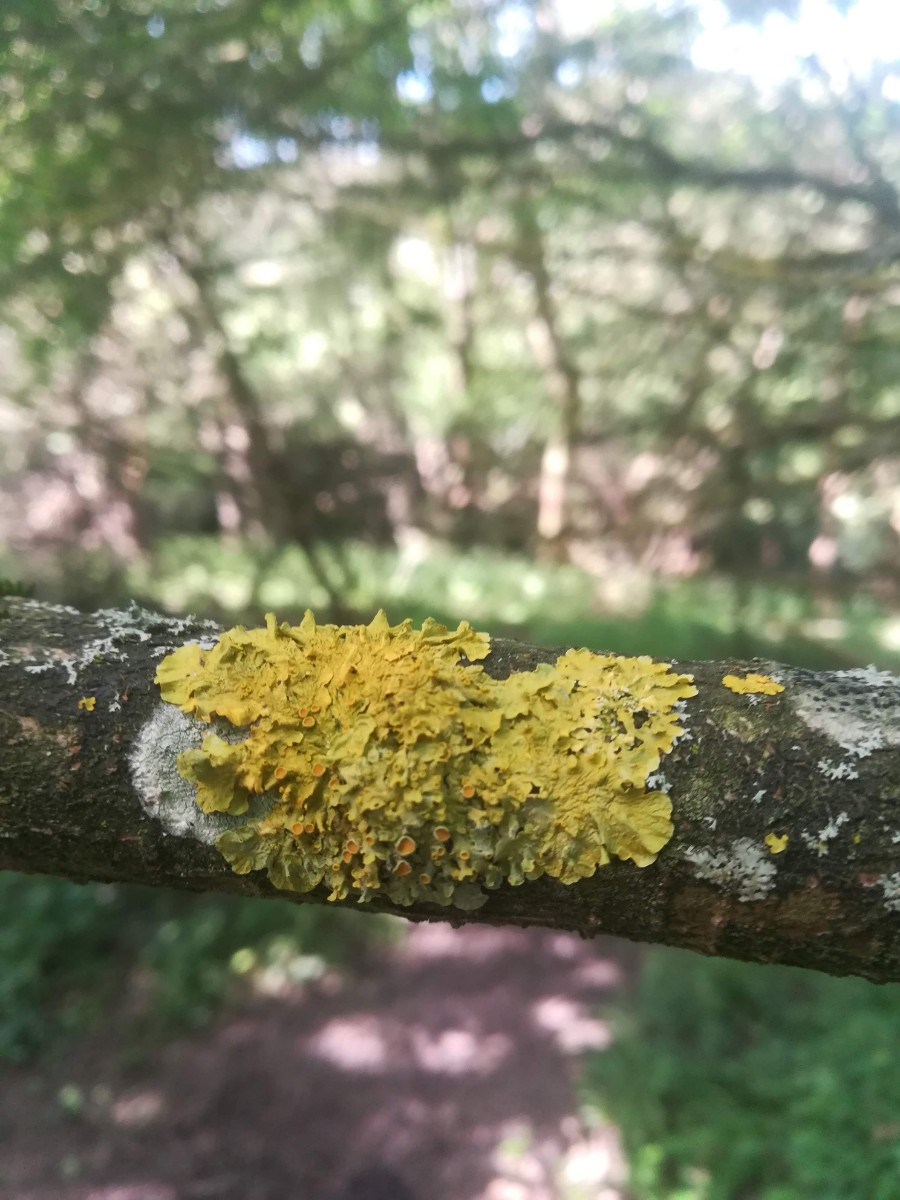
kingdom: Fungi
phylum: Ascomycota
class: Lecanoromycetes
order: Teloschistales
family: Teloschistaceae
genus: Xanthoria
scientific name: Xanthoria parietina
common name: almindelig væggelav
